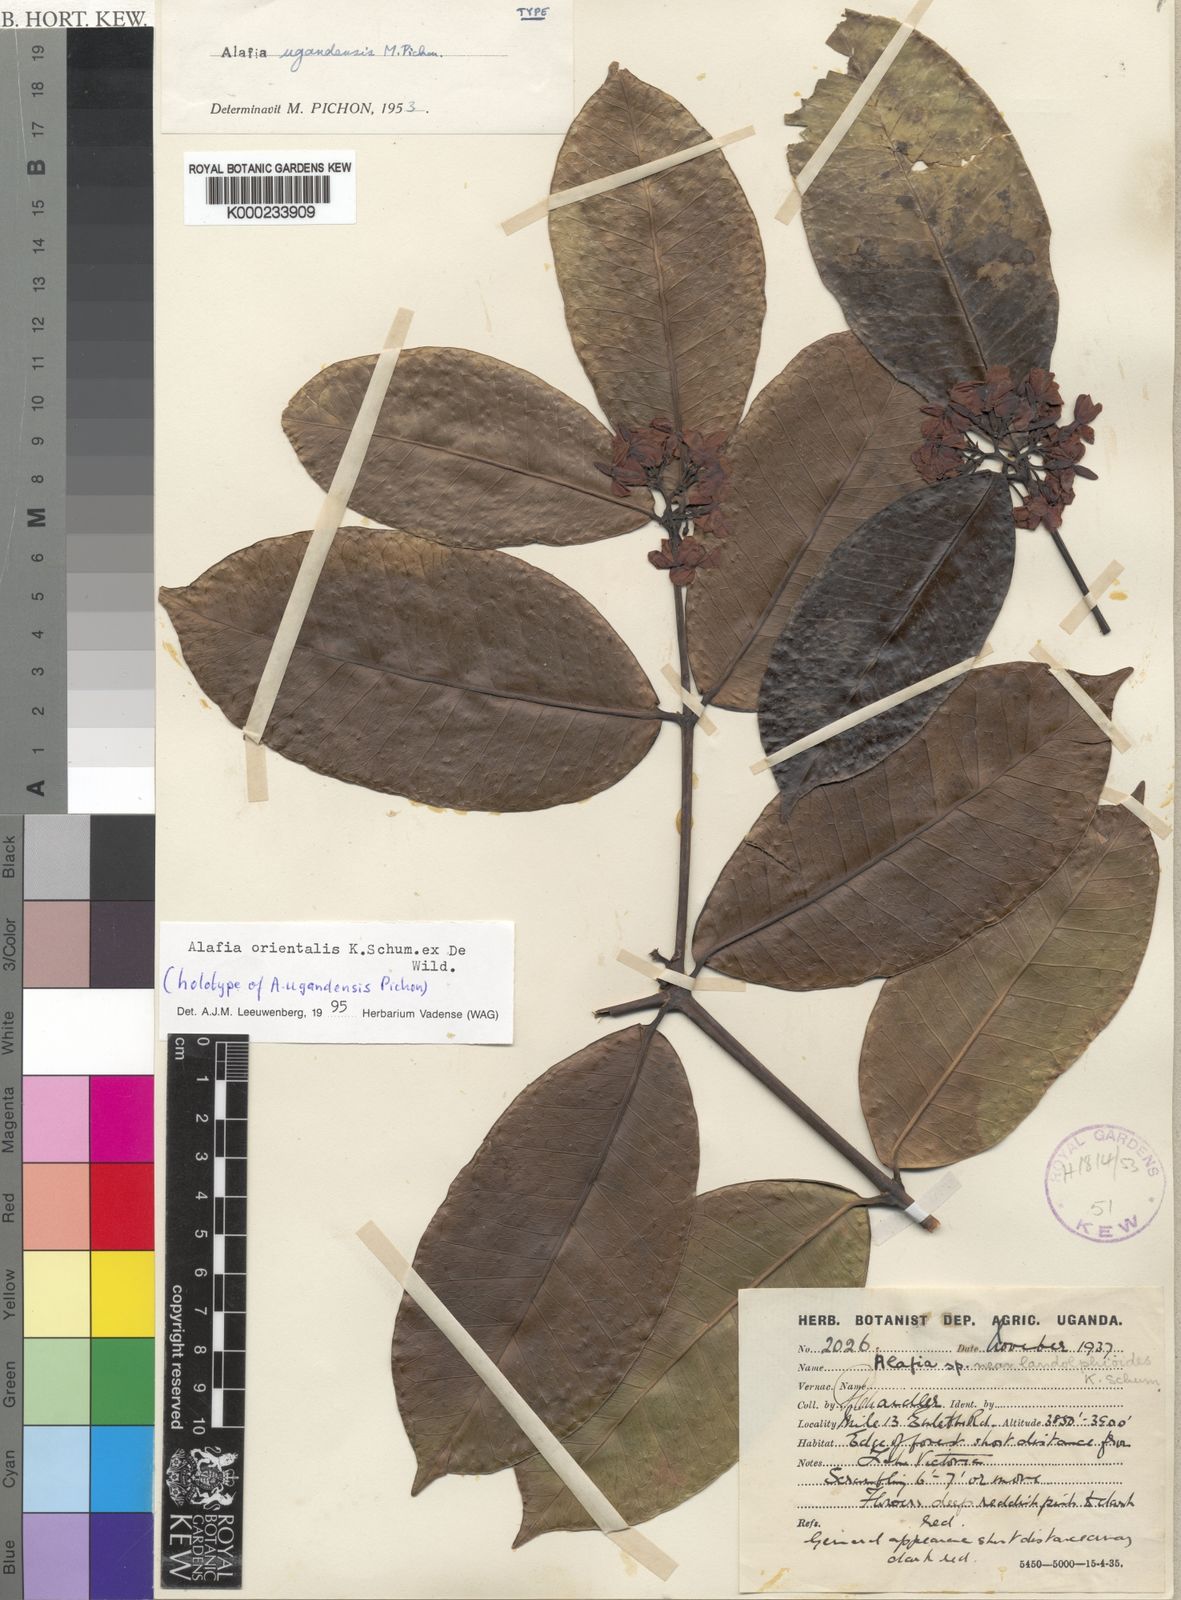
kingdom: Plantae
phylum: Tracheophyta
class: Magnoliopsida
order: Gentianales
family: Apocynaceae
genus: Alafia
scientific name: Alafia orientalis
